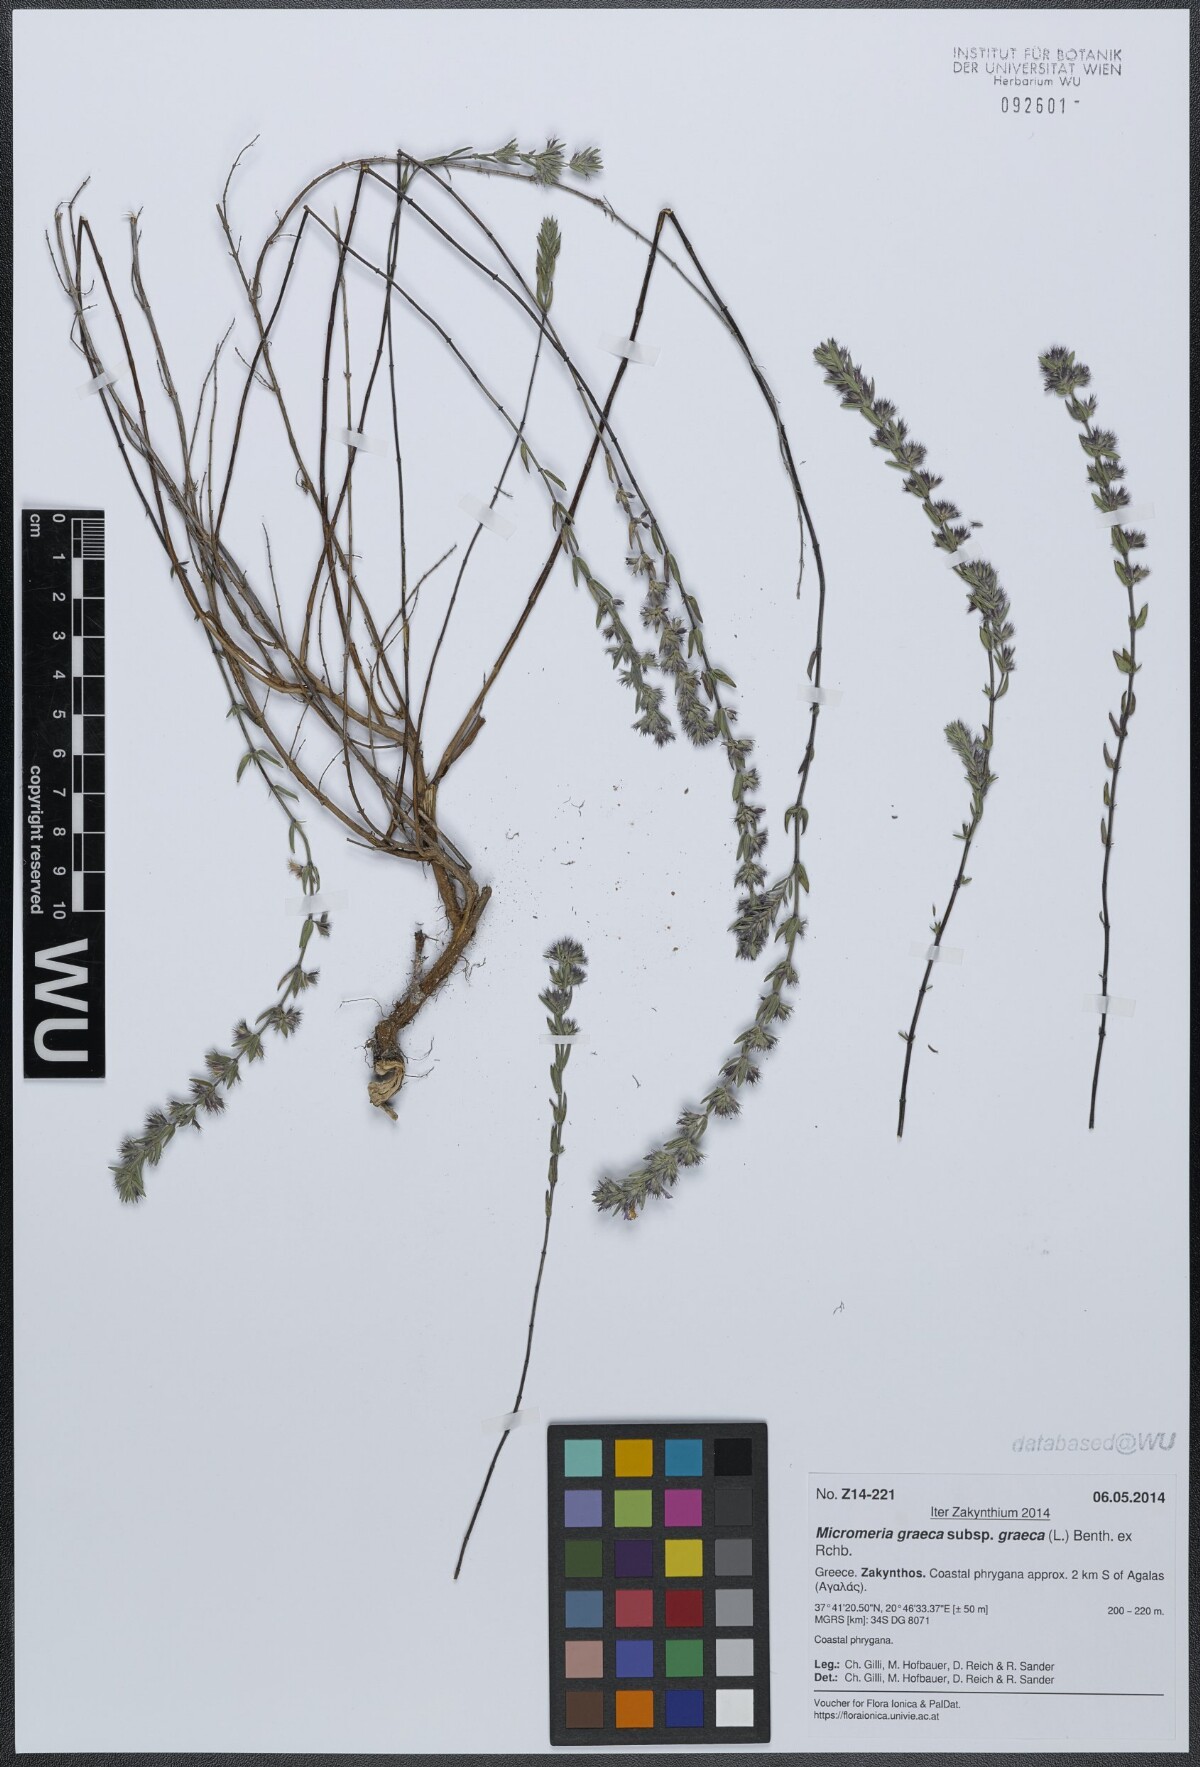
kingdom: Plantae
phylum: Tracheophyta
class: Magnoliopsida
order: Lamiales
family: Lamiaceae
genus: Micromeria
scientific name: Micromeria graeca
